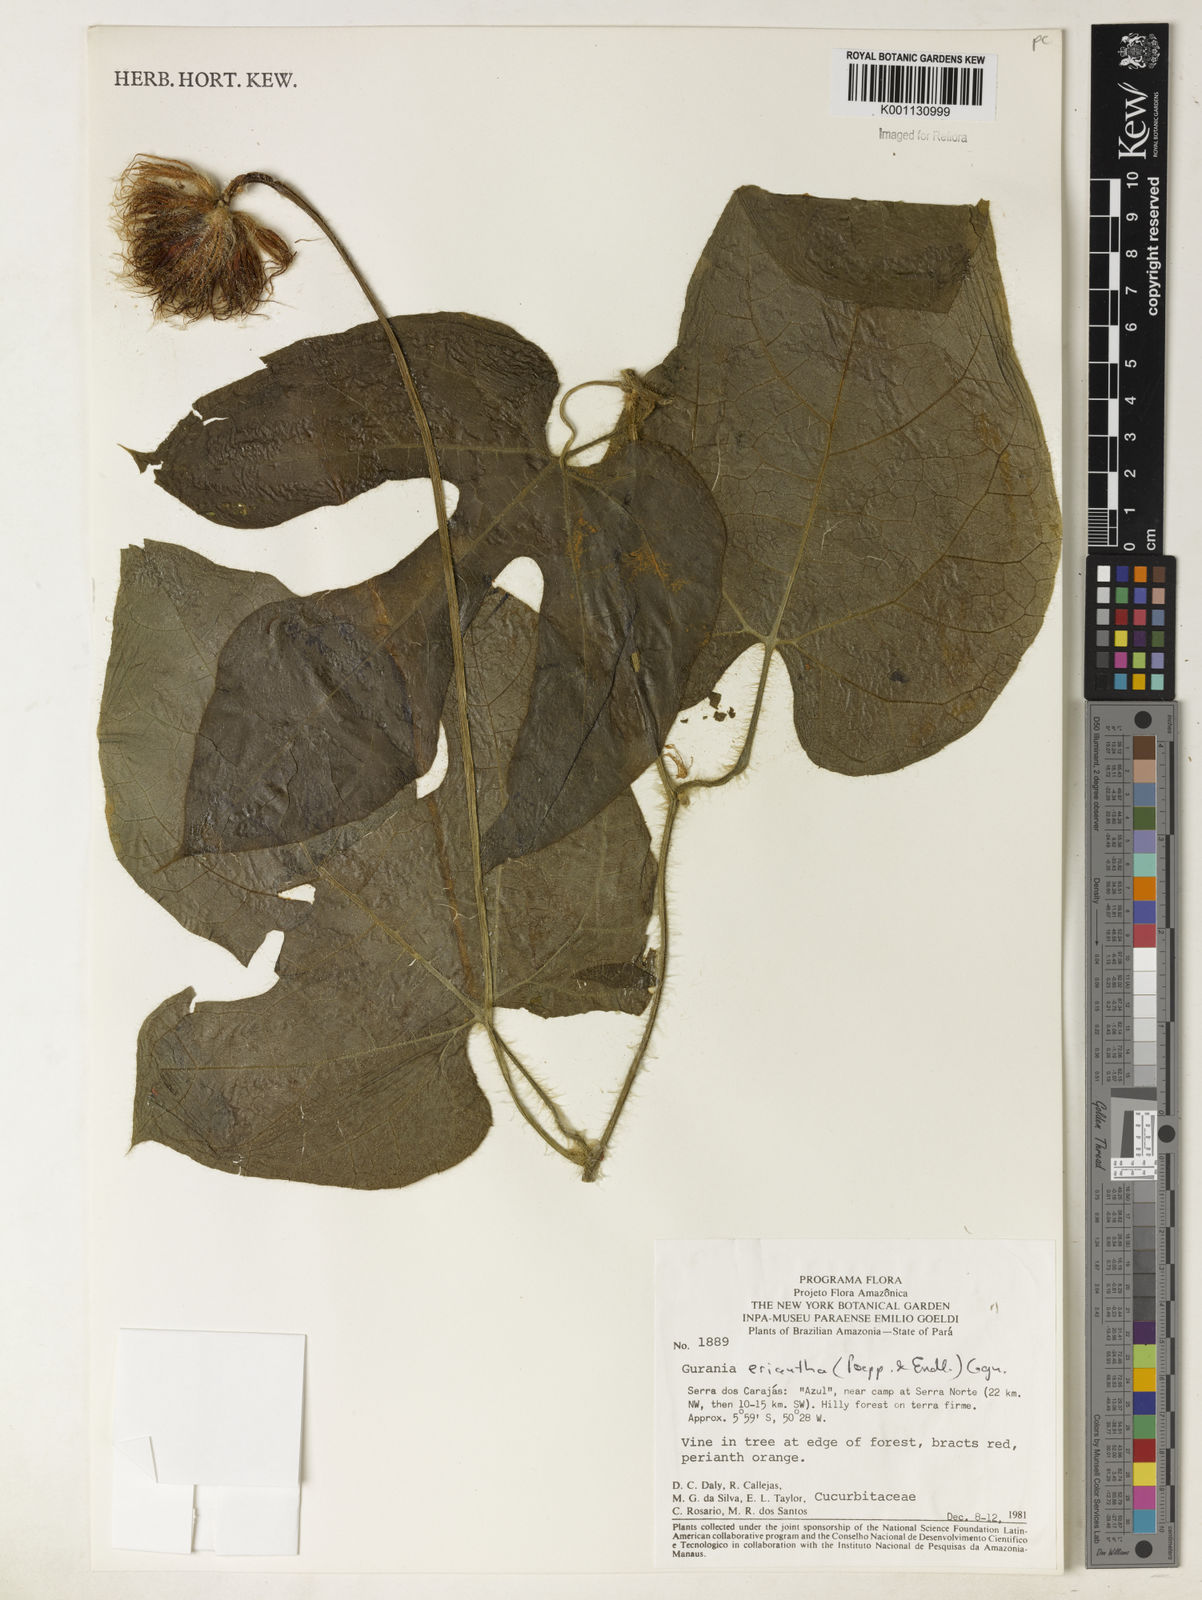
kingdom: Plantae
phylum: Tracheophyta
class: Magnoliopsida
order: Cucurbitales
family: Cucurbitaceae
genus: Gurania
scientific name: Gurania eriantha
